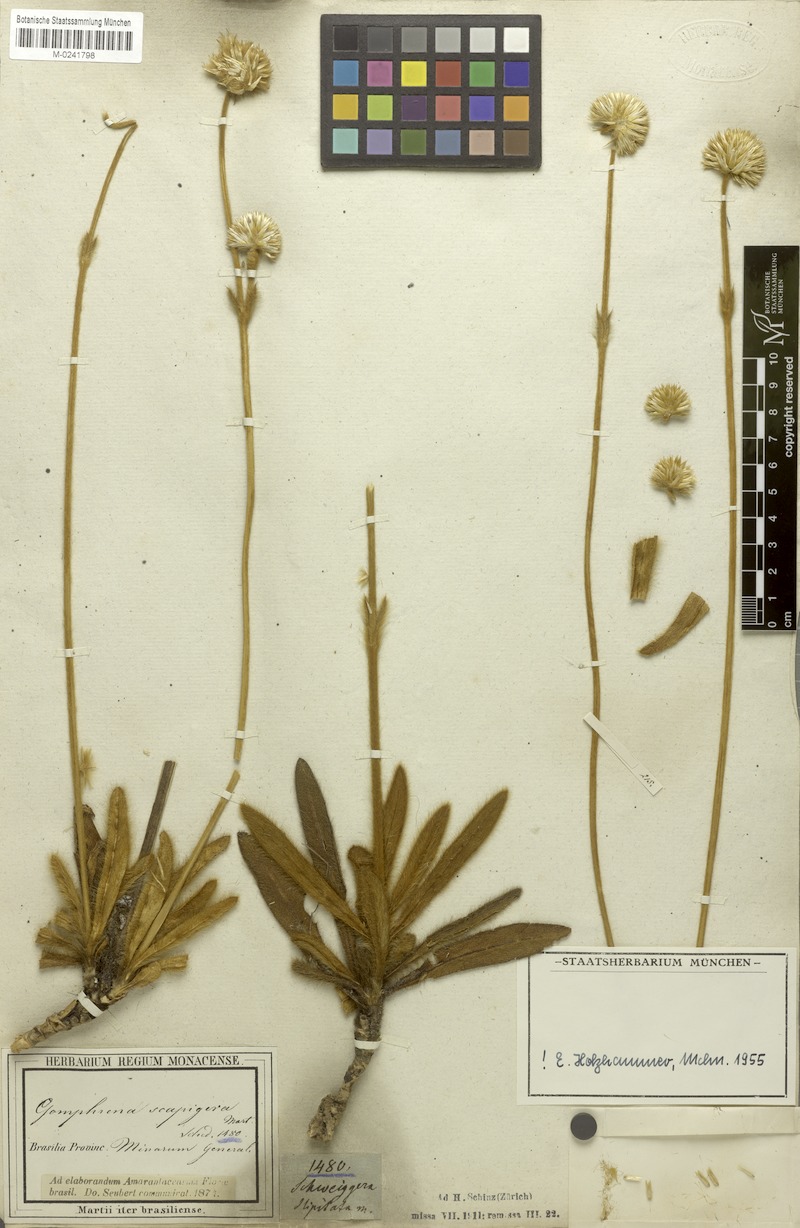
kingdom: Plantae
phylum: Tracheophyta
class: Magnoliopsida
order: Caryophyllales
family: Amaranthaceae
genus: Gomphrena
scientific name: Gomphrena scapigera
